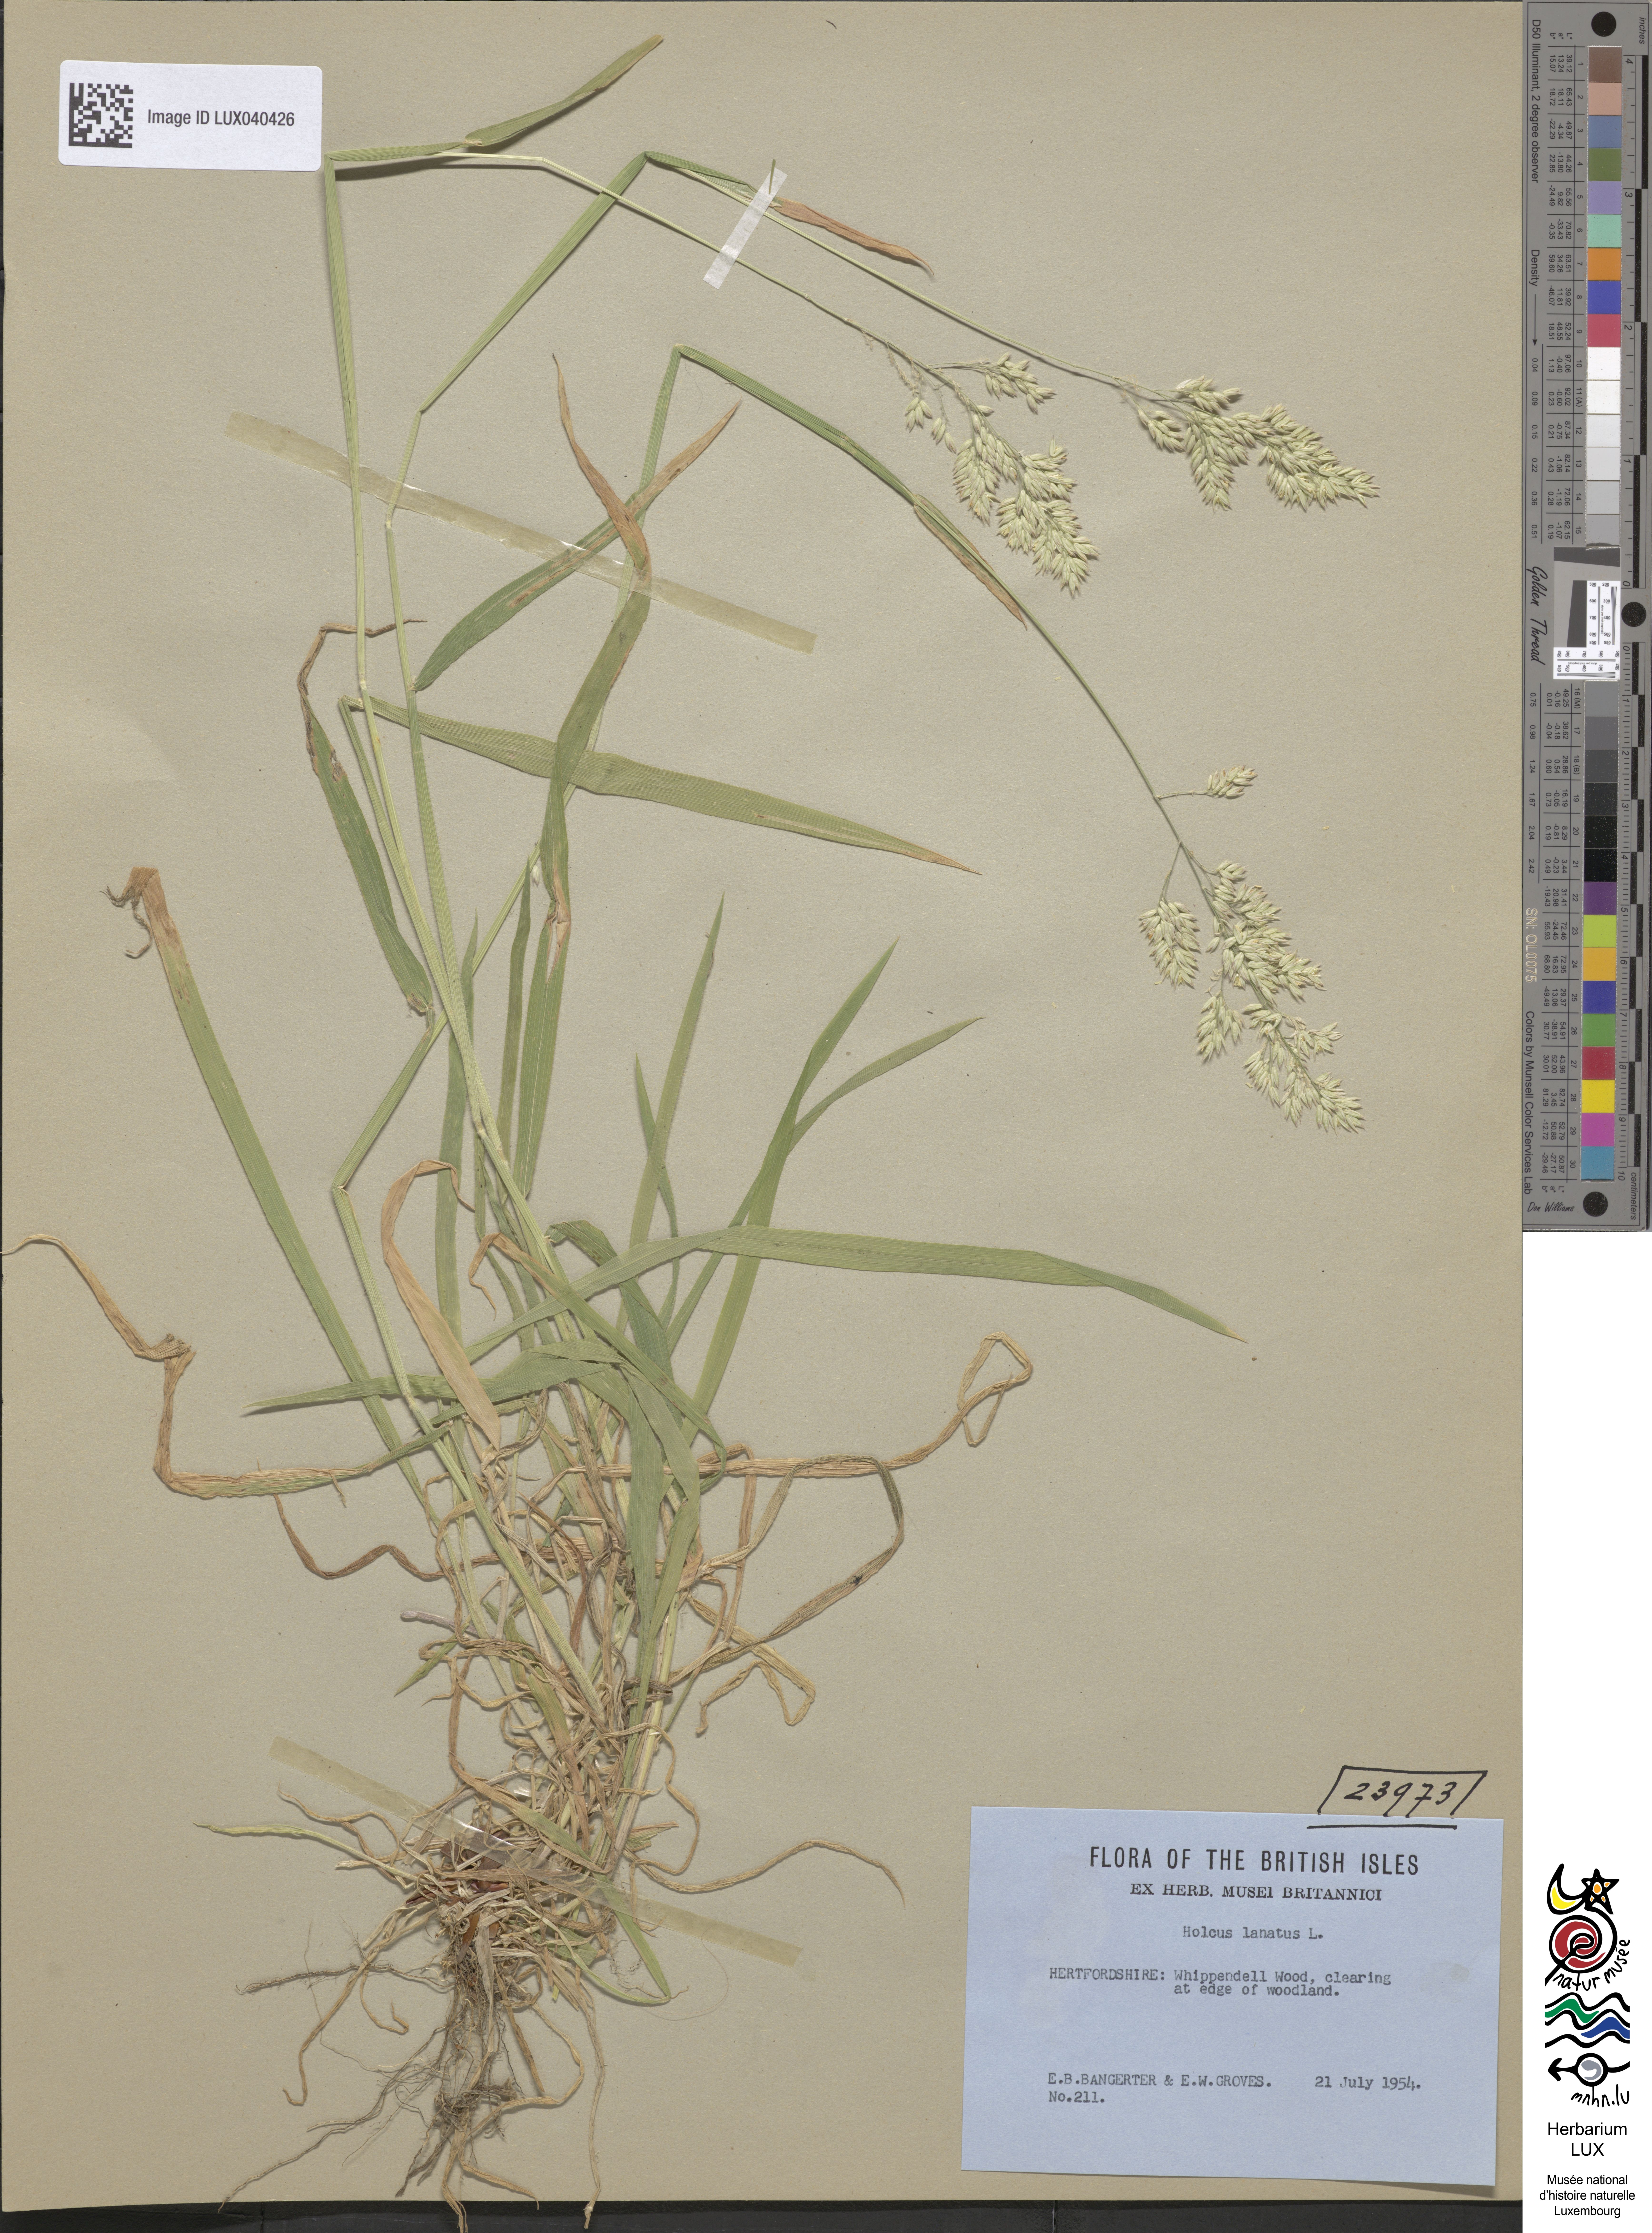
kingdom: Plantae
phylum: Tracheophyta
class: Liliopsida
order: Poales
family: Poaceae
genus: Holcus
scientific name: Holcus lanatus
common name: Yorkshire-fog
